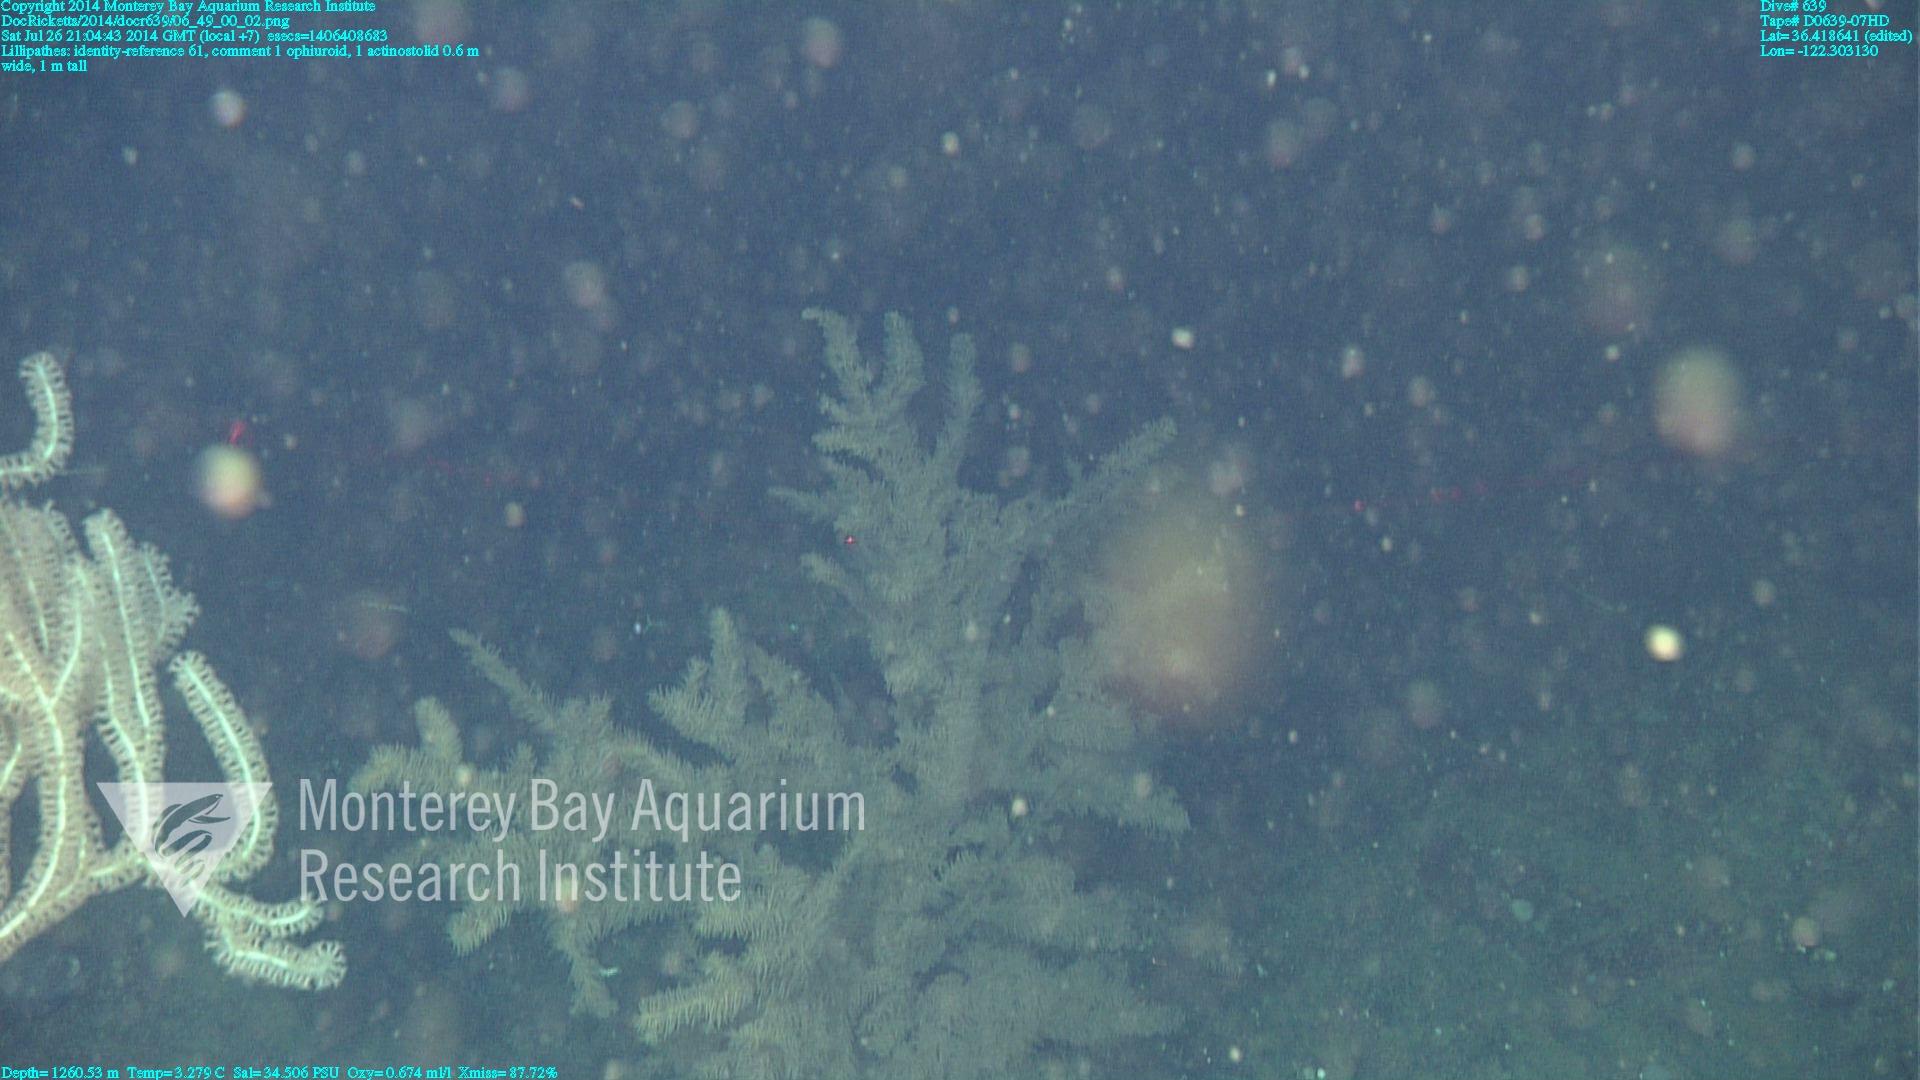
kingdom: Animalia
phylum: Cnidaria
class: Anthozoa
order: Antipatharia
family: Schizopathidae
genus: Lillipathes
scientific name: Lillipathes
